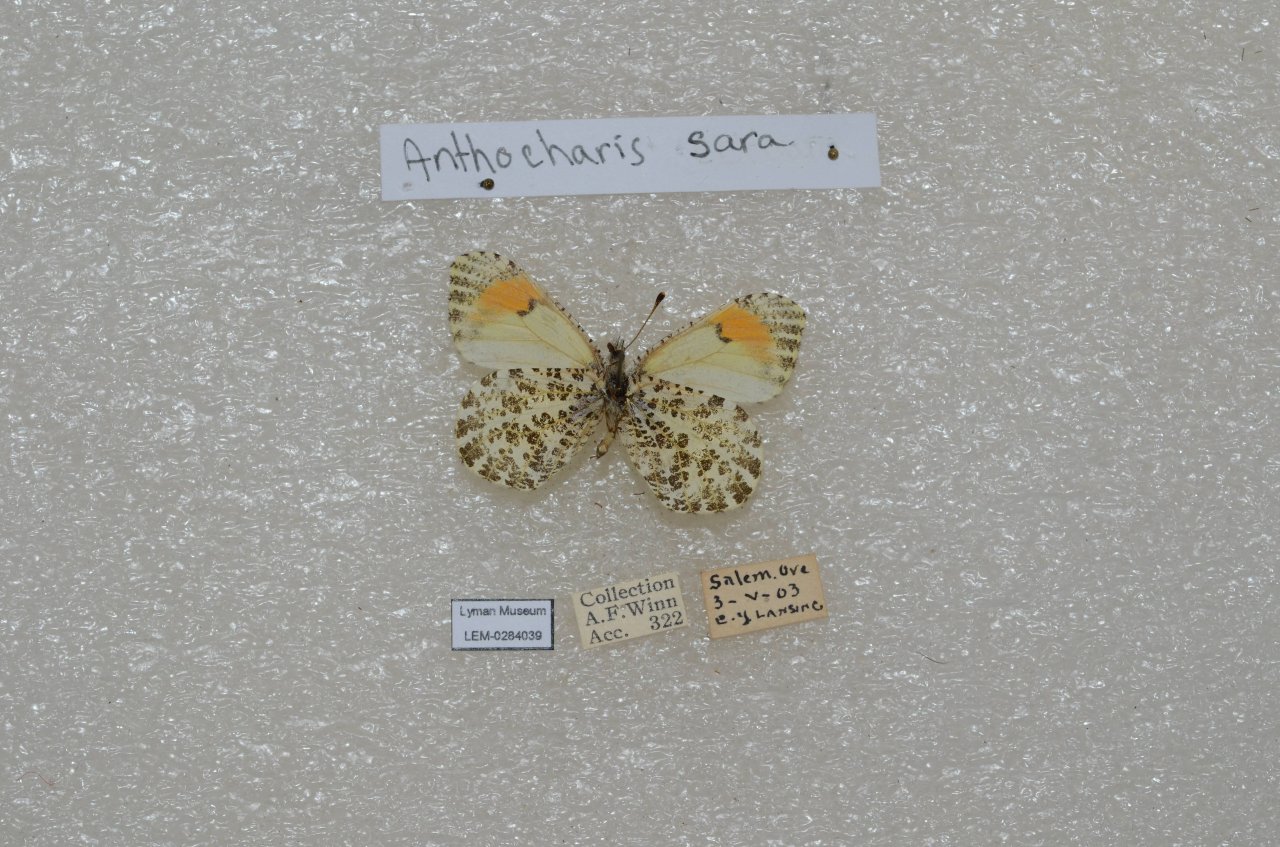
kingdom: Animalia
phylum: Arthropoda
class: Insecta
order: Lepidoptera
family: Pieridae
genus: Anthocharis
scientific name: Anthocharis sara
